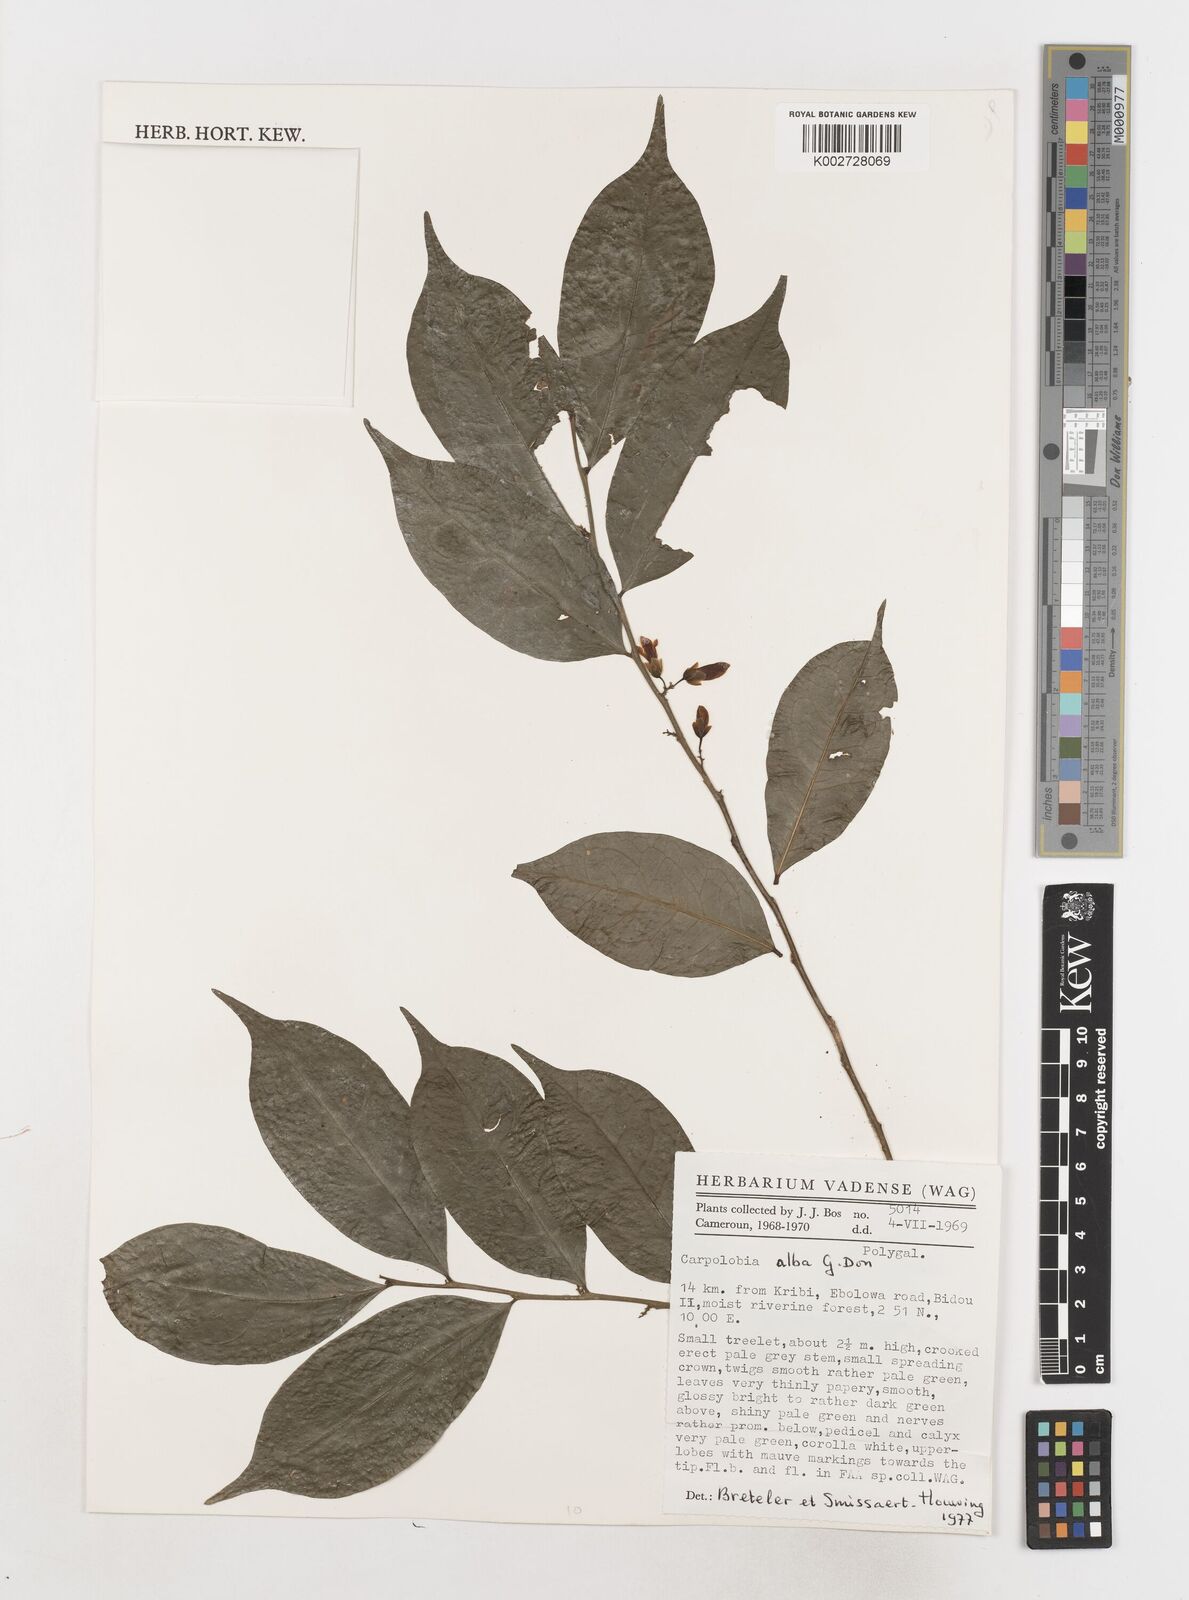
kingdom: Plantae
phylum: Tracheophyta
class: Magnoliopsida
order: Fabales
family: Polygalaceae
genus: Carpolobia
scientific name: Carpolobia alba
